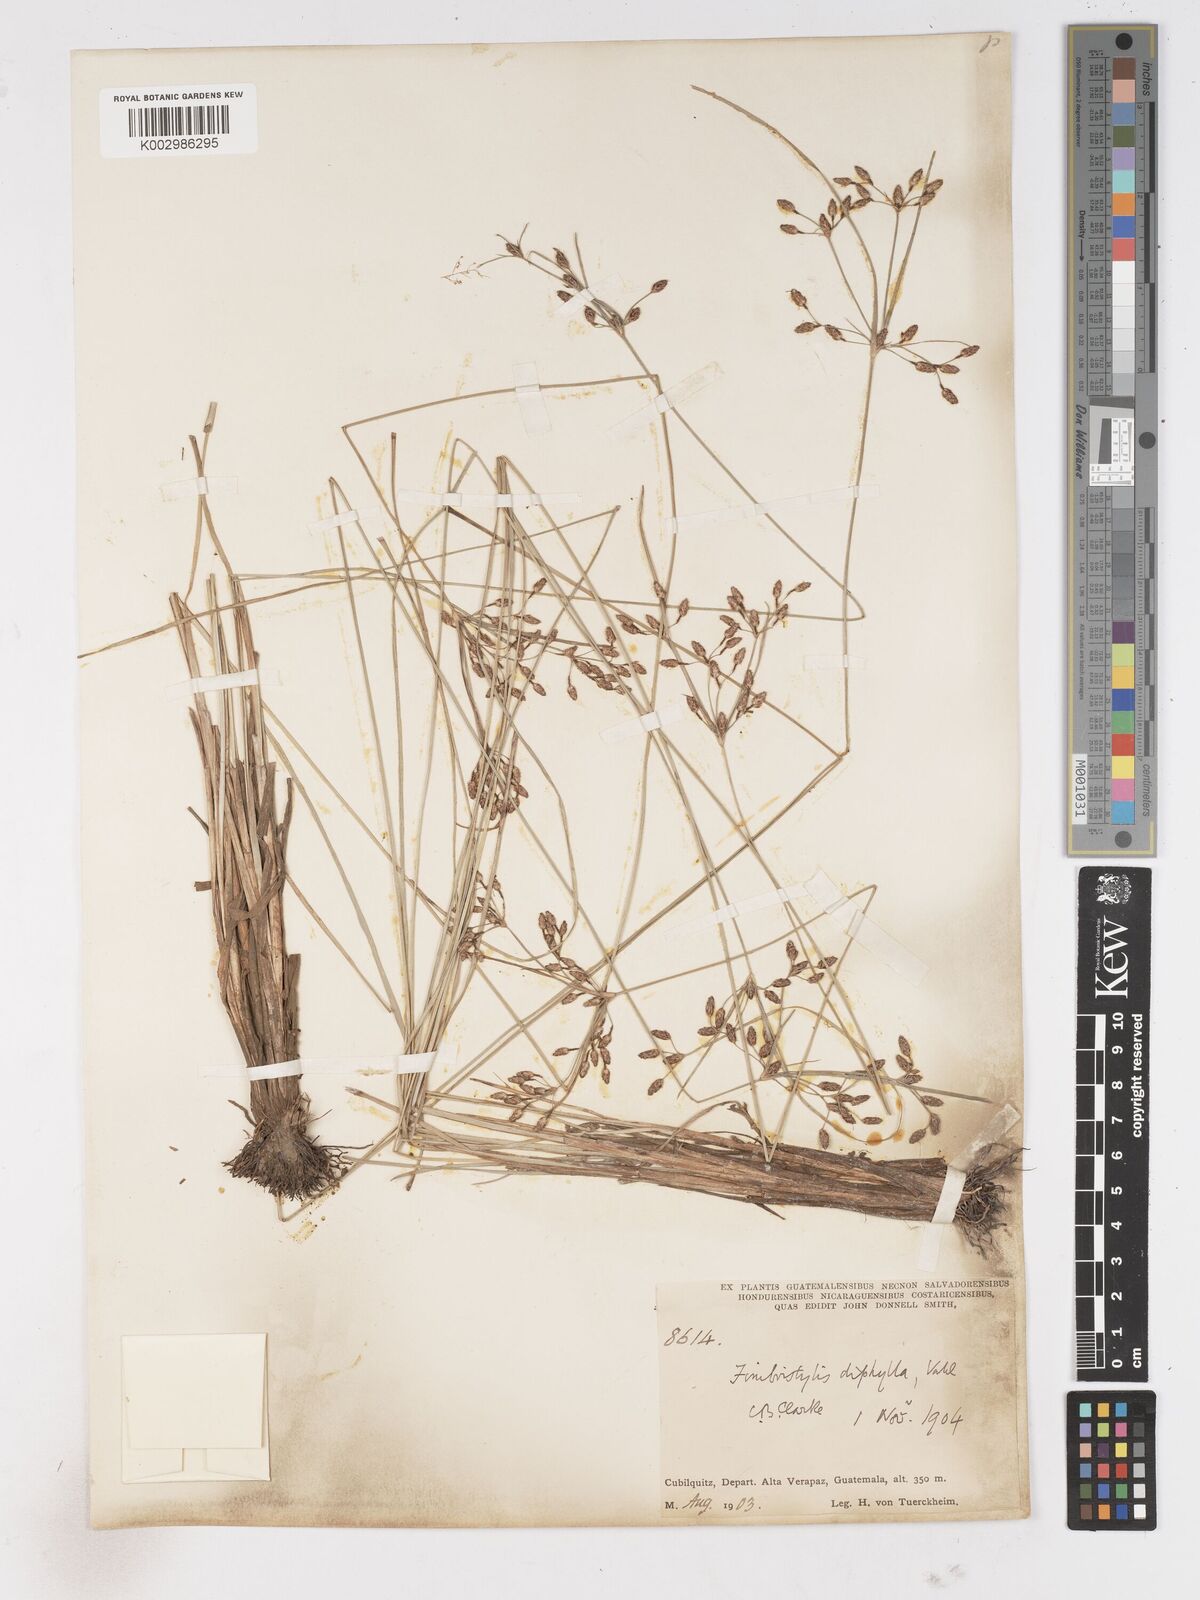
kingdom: Plantae
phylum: Tracheophyta
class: Liliopsida
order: Poales
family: Cyperaceae
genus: Fimbristylis
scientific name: Fimbristylis dichotoma
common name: Forked fimbry
